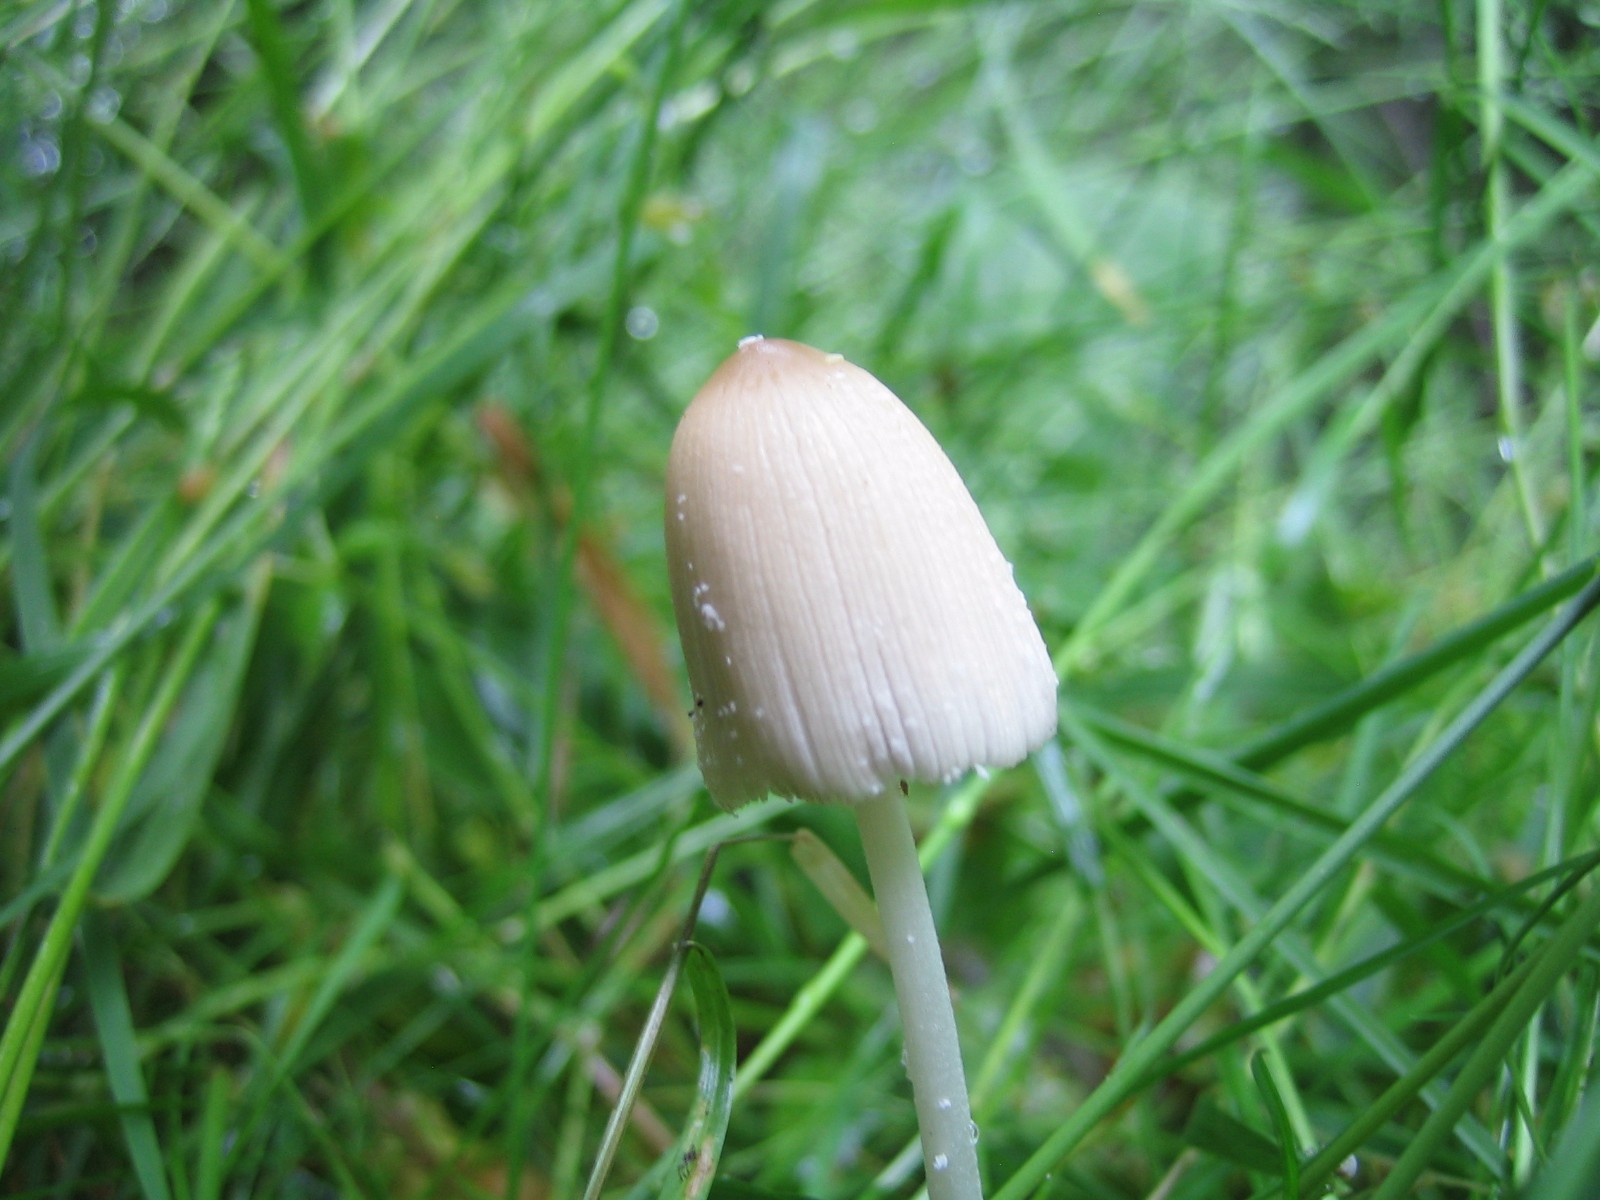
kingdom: Fungi
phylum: Basidiomycota
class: Agaricomycetes
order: Agaricales
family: Psathyrellaceae
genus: Coprinopsis
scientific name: Coprinopsis
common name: blækhat
